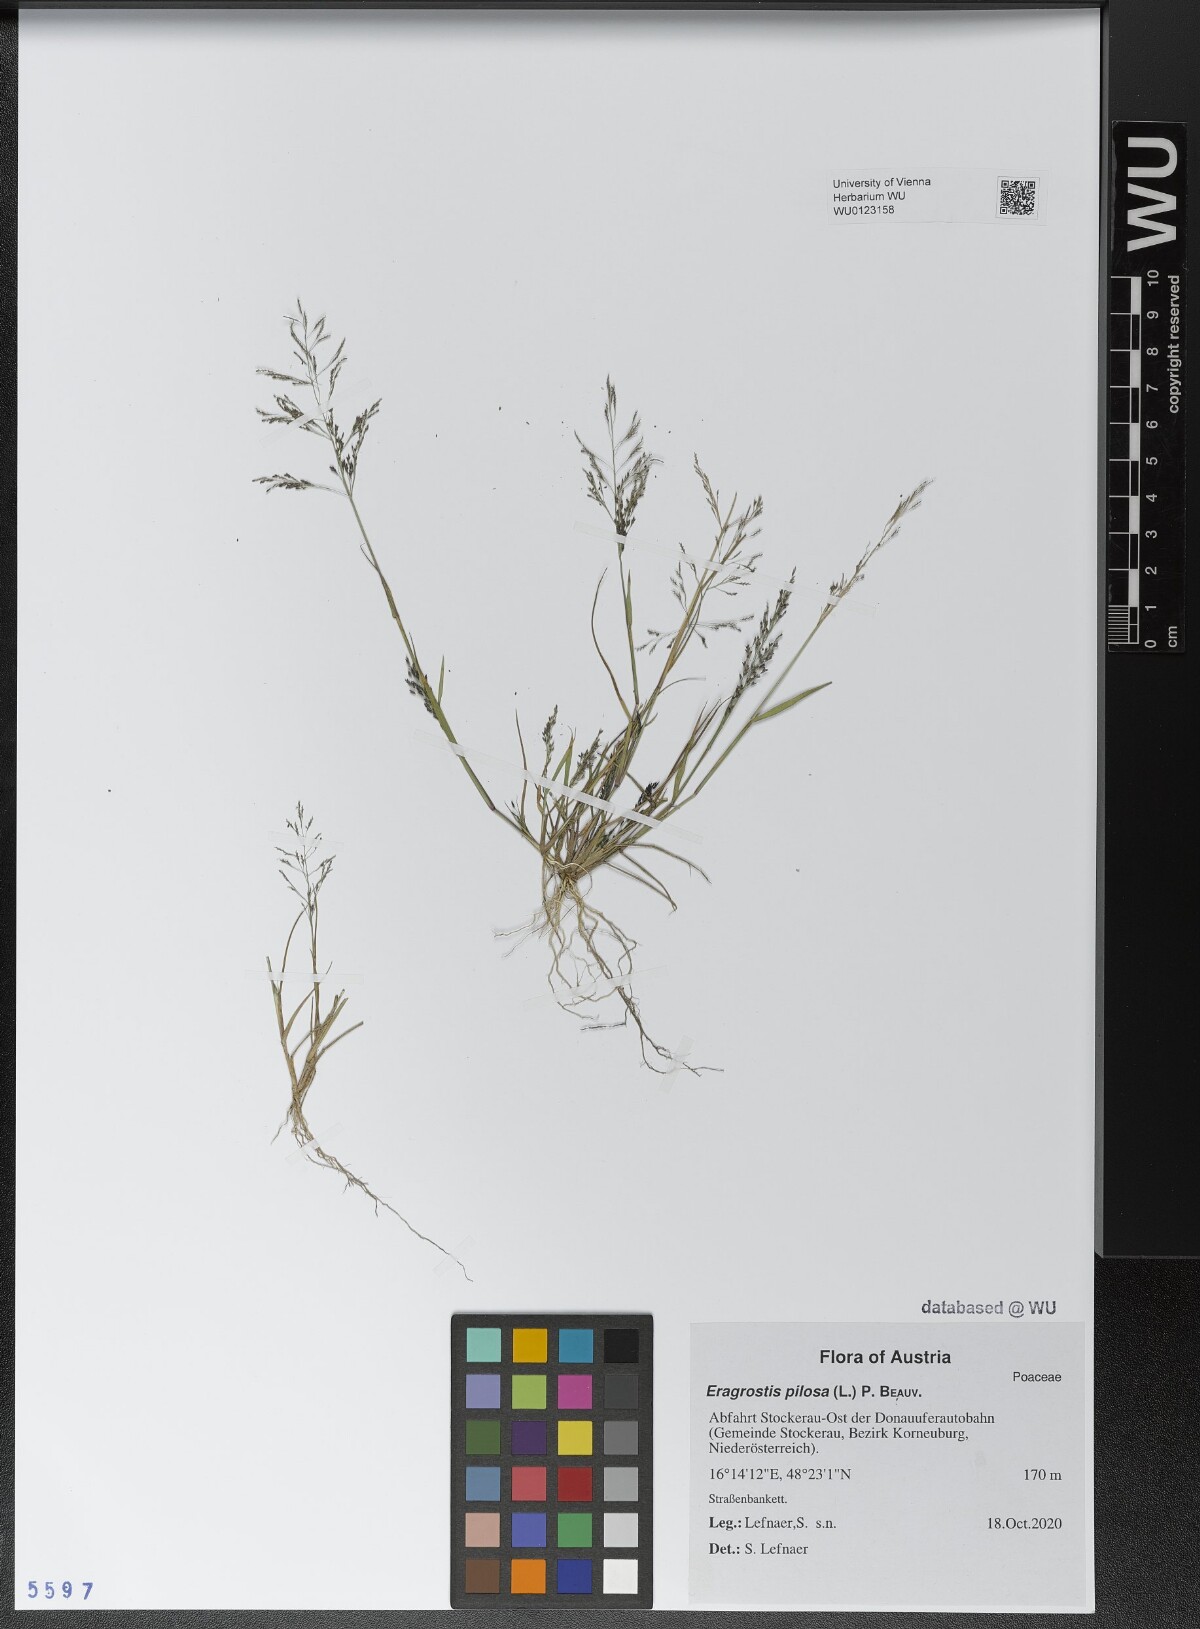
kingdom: Plantae
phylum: Tracheophyta
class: Liliopsida
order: Poales
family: Poaceae
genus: Eragrostis
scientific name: Eragrostis pilosa
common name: Indian lovegrass
